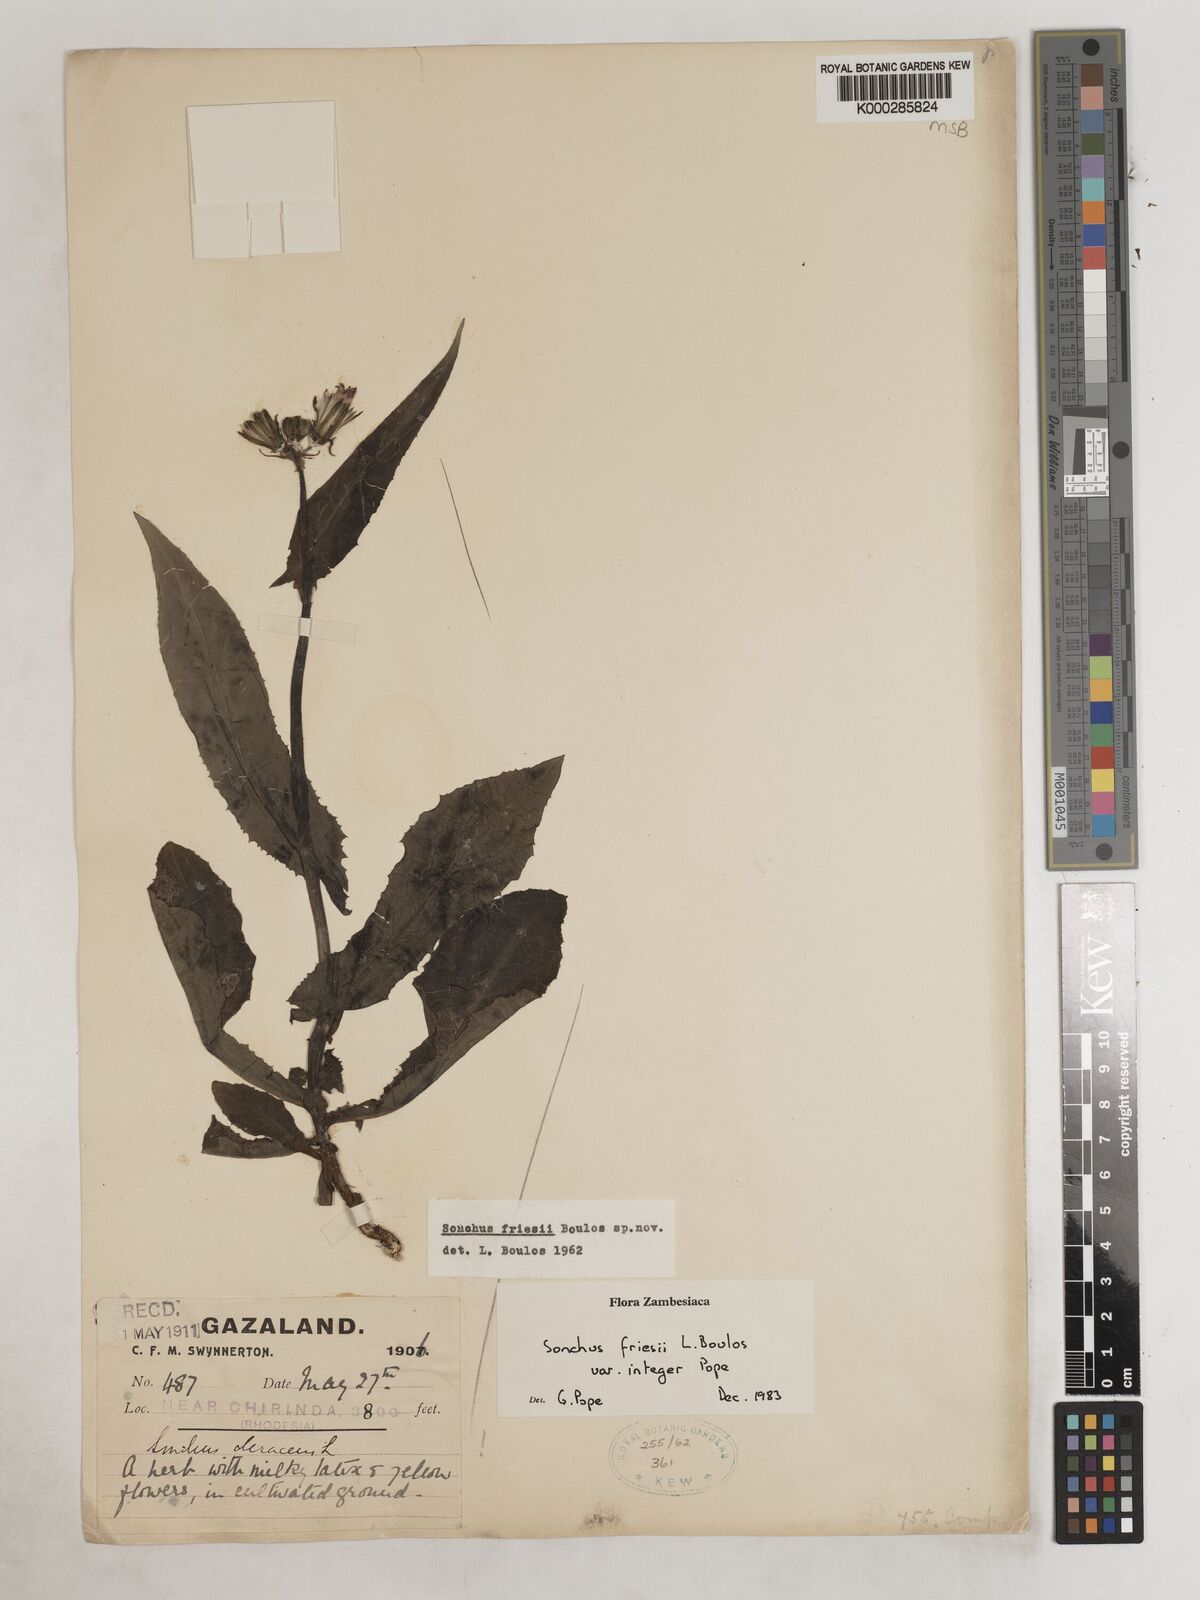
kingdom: Plantae
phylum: Tracheophyta
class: Magnoliopsida
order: Asterales
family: Asteraceae
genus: Sonchus
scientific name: Sonchus friesii
